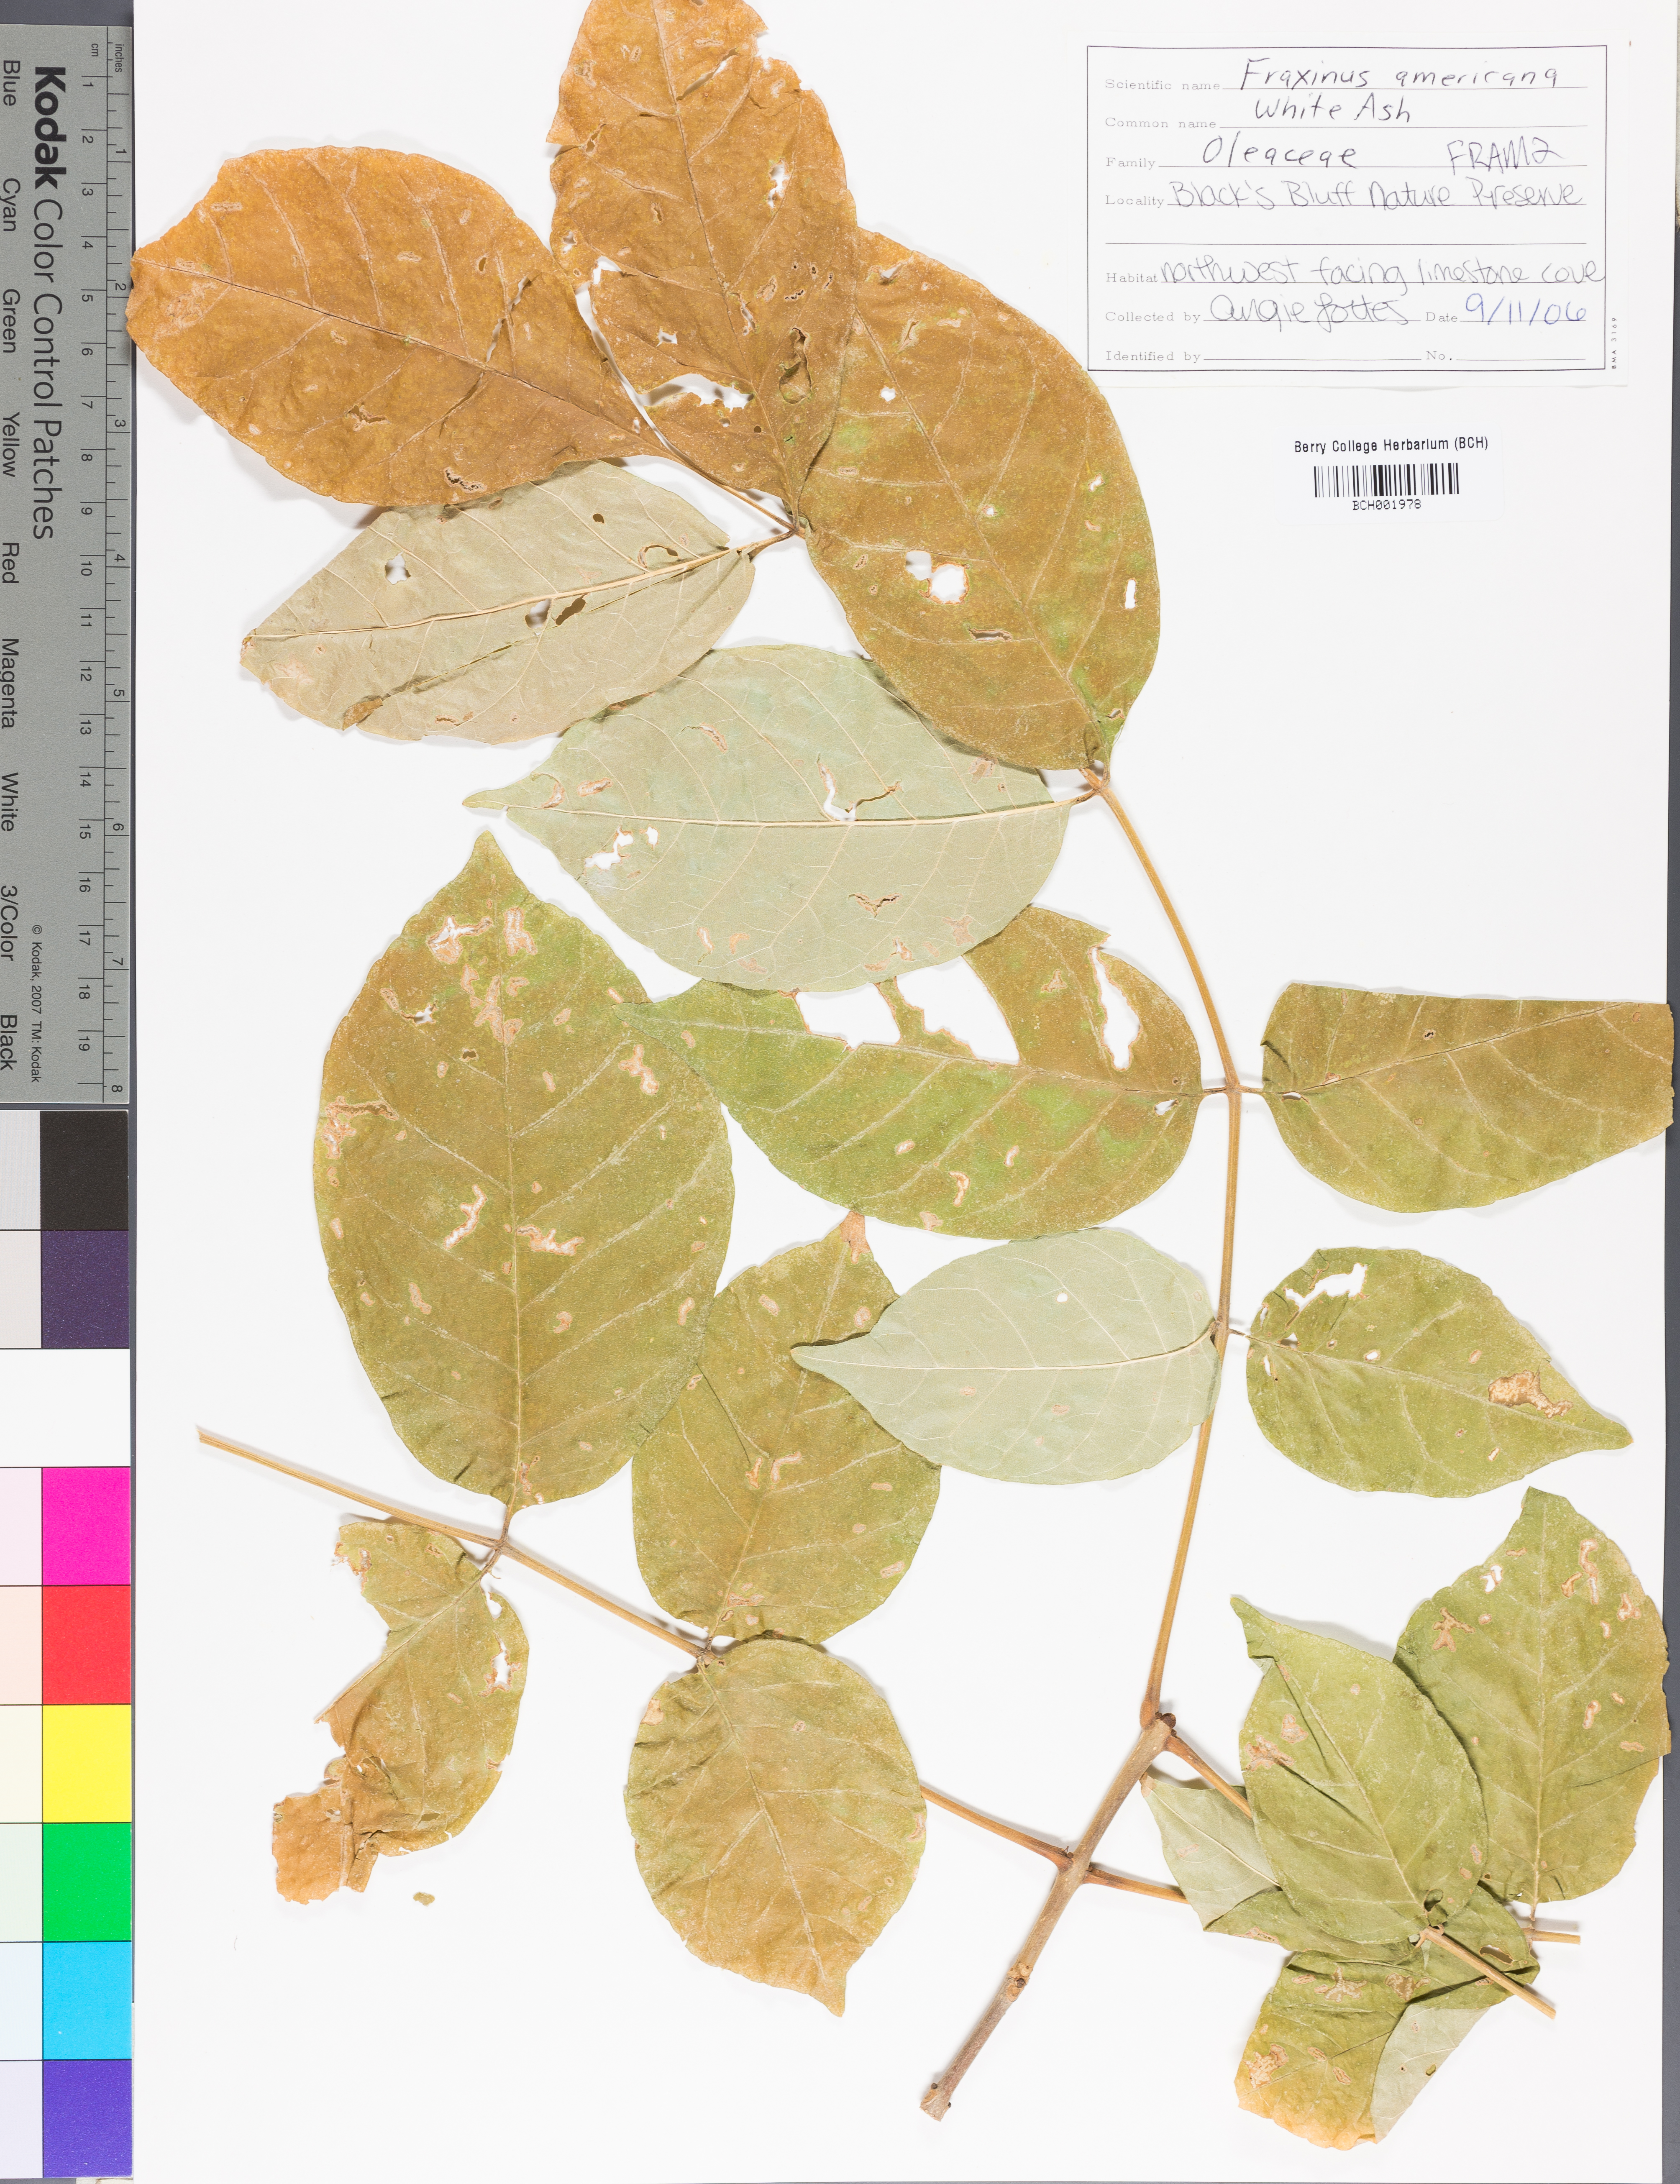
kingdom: Plantae
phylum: Tracheophyta
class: Magnoliopsida
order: Lamiales
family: Oleaceae
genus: Fraxinus
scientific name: Fraxinus americana
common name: White ash
